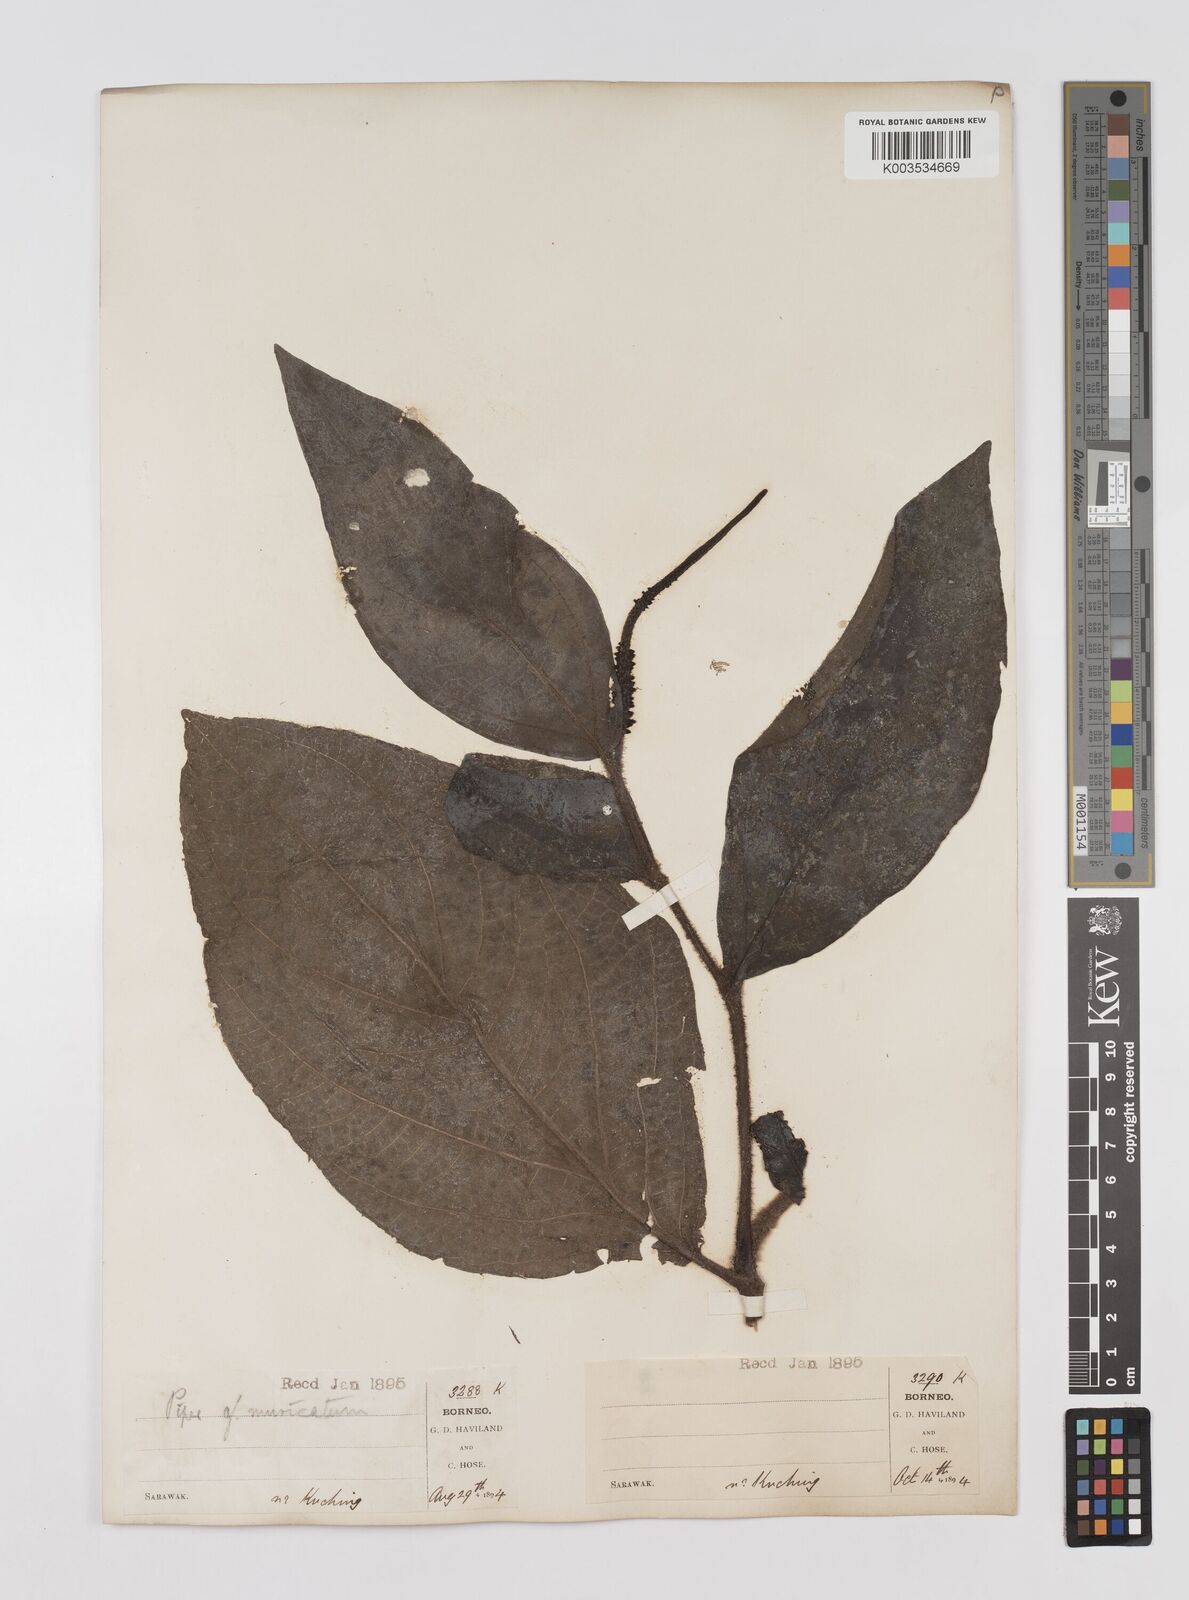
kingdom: Plantae
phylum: Tracheophyta
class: Magnoliopsida
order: Piperales
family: Piperaceae
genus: Piper
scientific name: Piper muricatum
